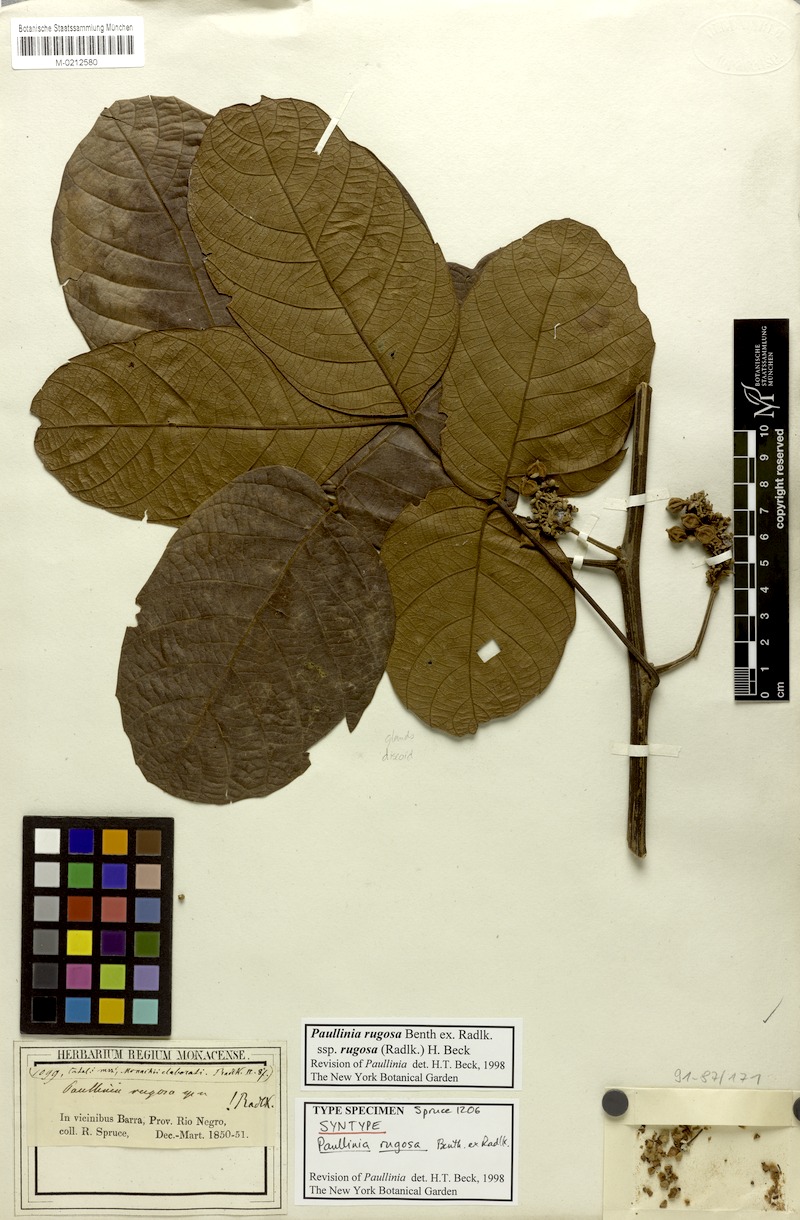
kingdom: Plantae
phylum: Tracheophyta
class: Magnoliopsida
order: Sapindales
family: Sapindaceae
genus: Paullinia
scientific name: Paullinia rugosa
